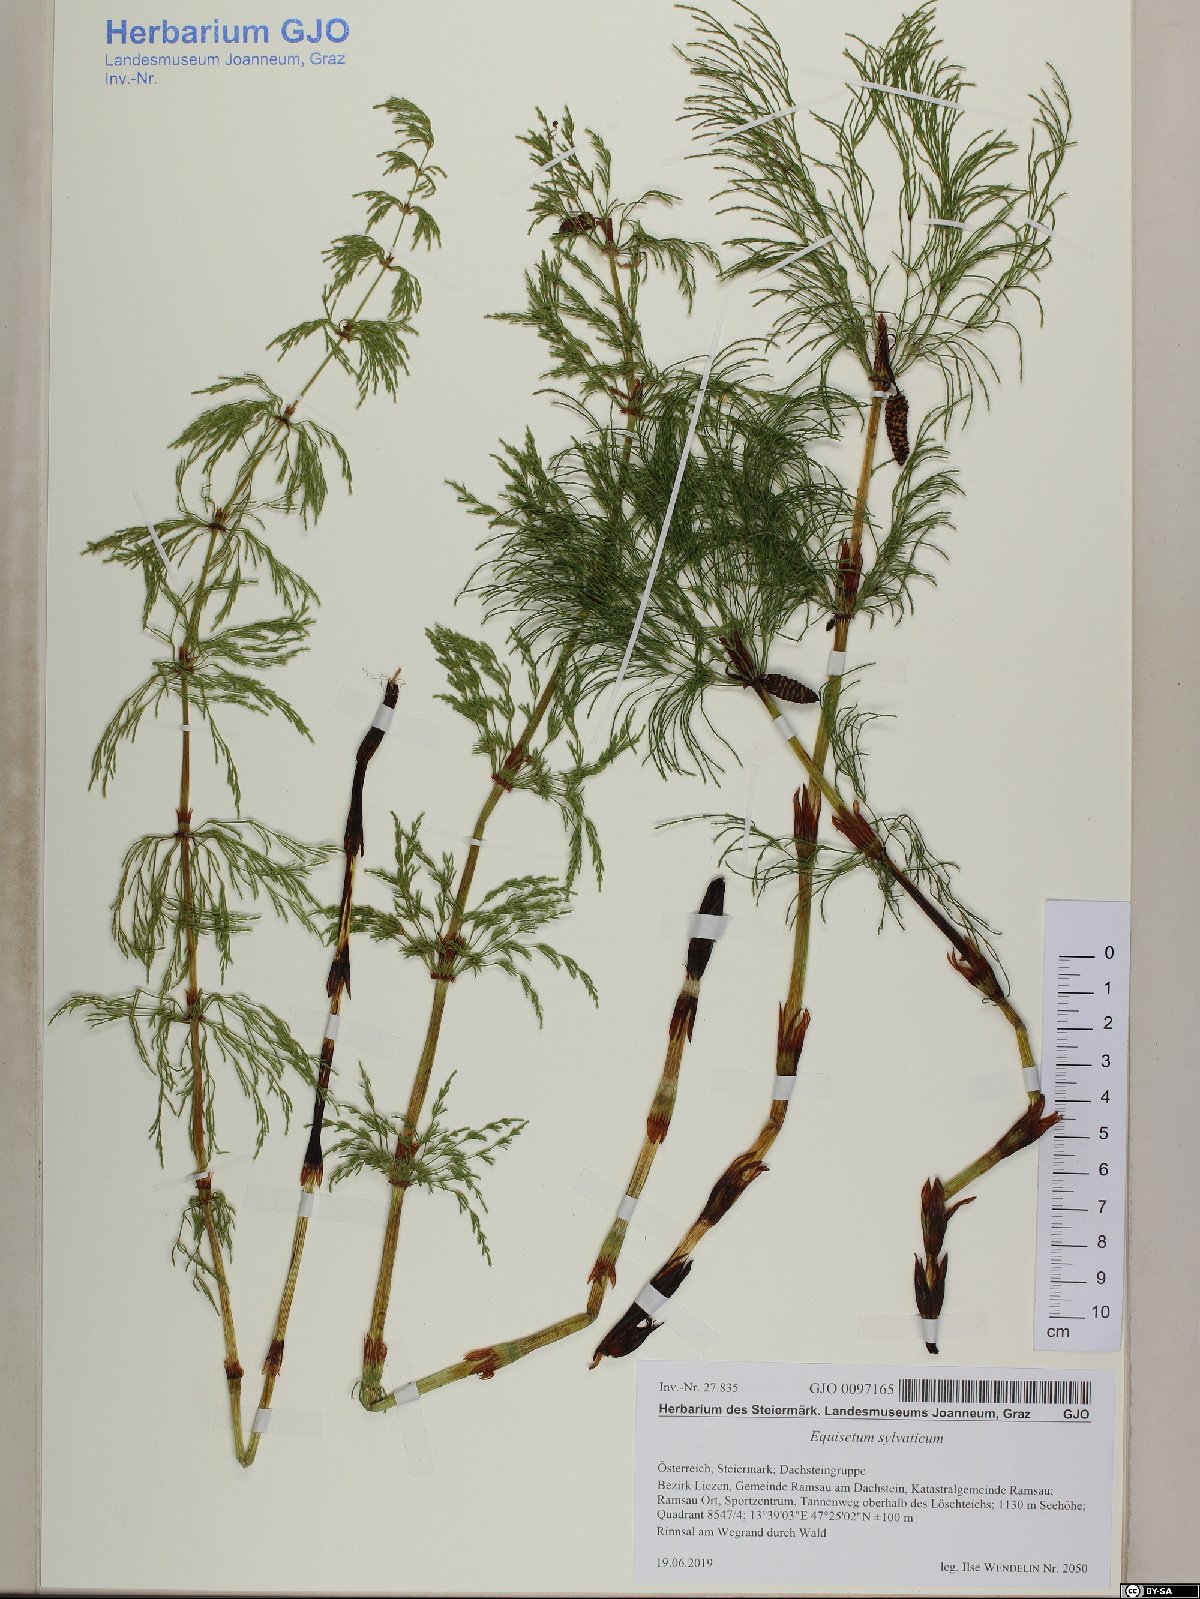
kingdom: Plantae
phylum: Tracheophyta
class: Polypodiopsida
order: Equisetales
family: Equisetaceae
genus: Equisetum
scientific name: Equisetum sylvaticum
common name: Wood horsetail
